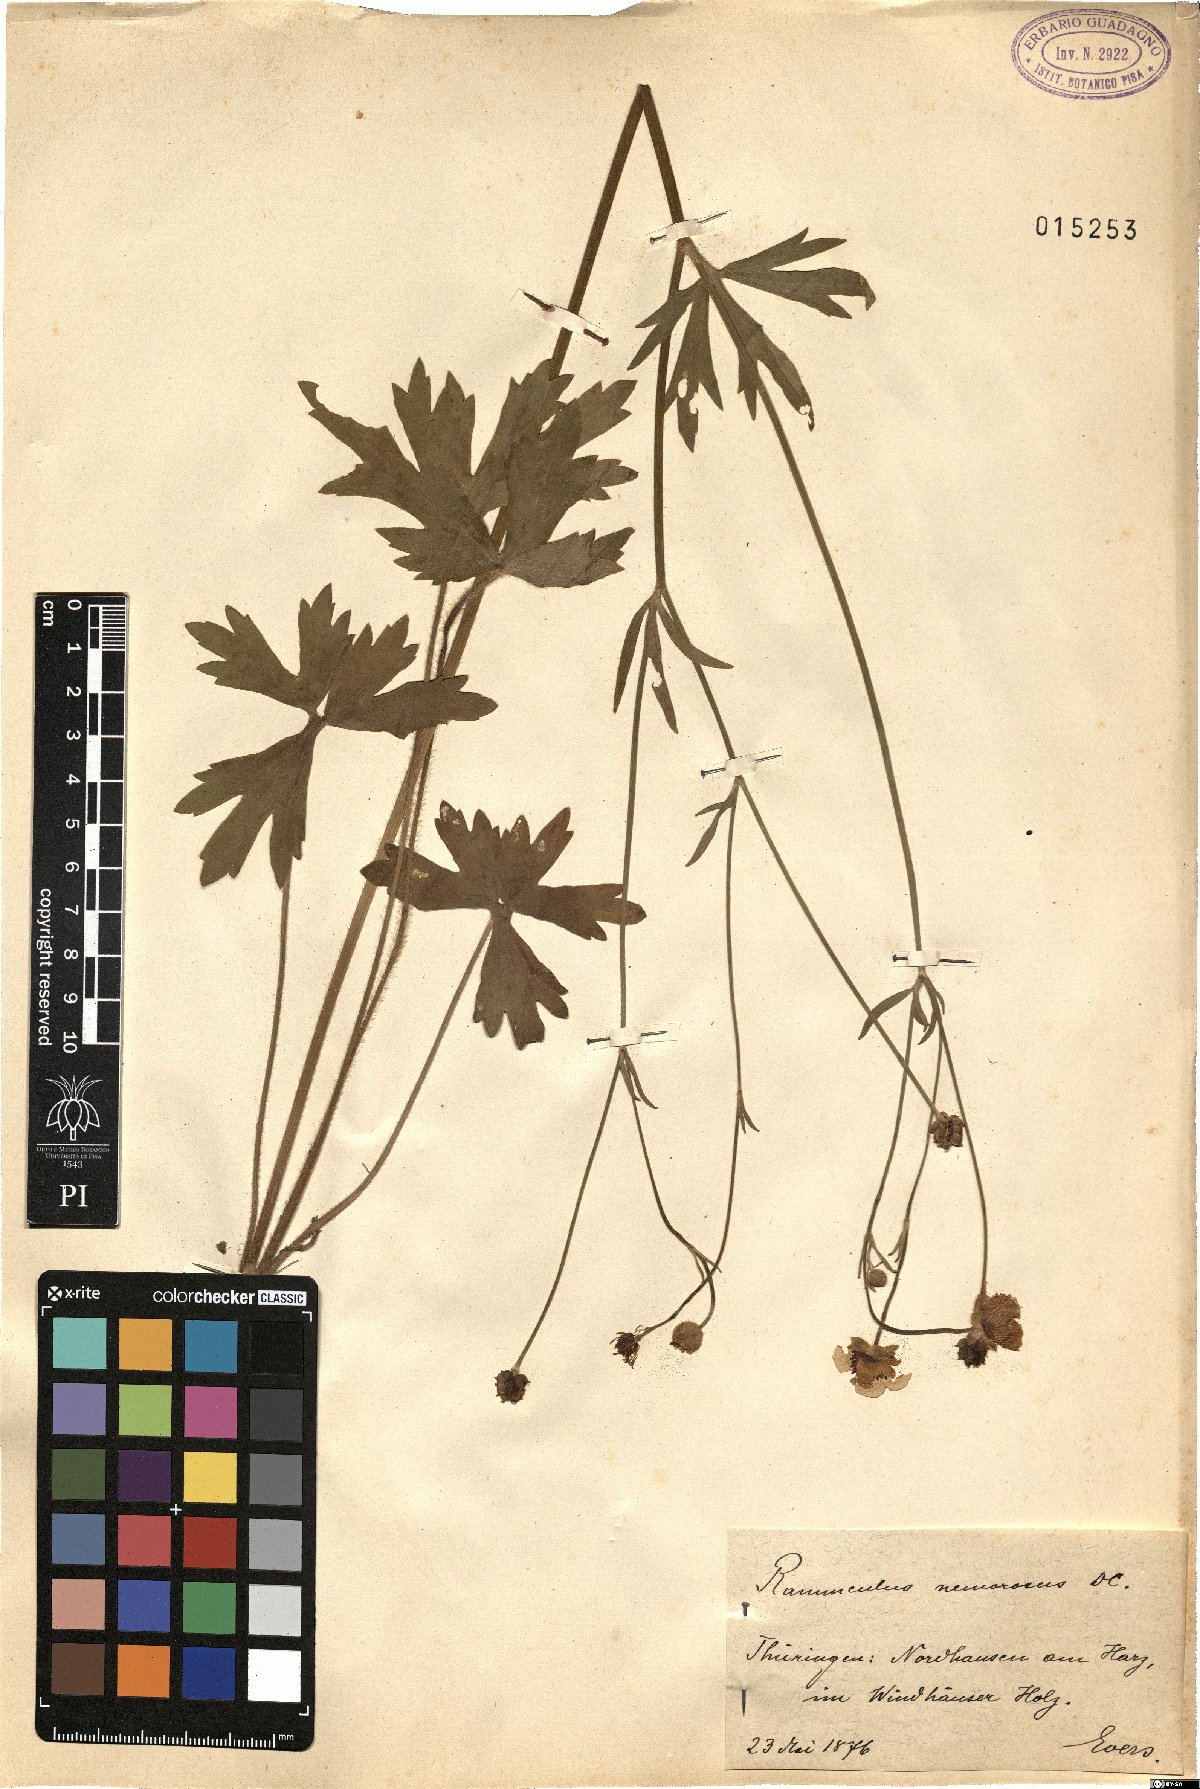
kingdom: Plantae
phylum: Tracheophyta
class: Magnoliopsida
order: Ranunculales
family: Ranunculaceae
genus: Ranunculus
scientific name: Ranunculus polyanthemos
